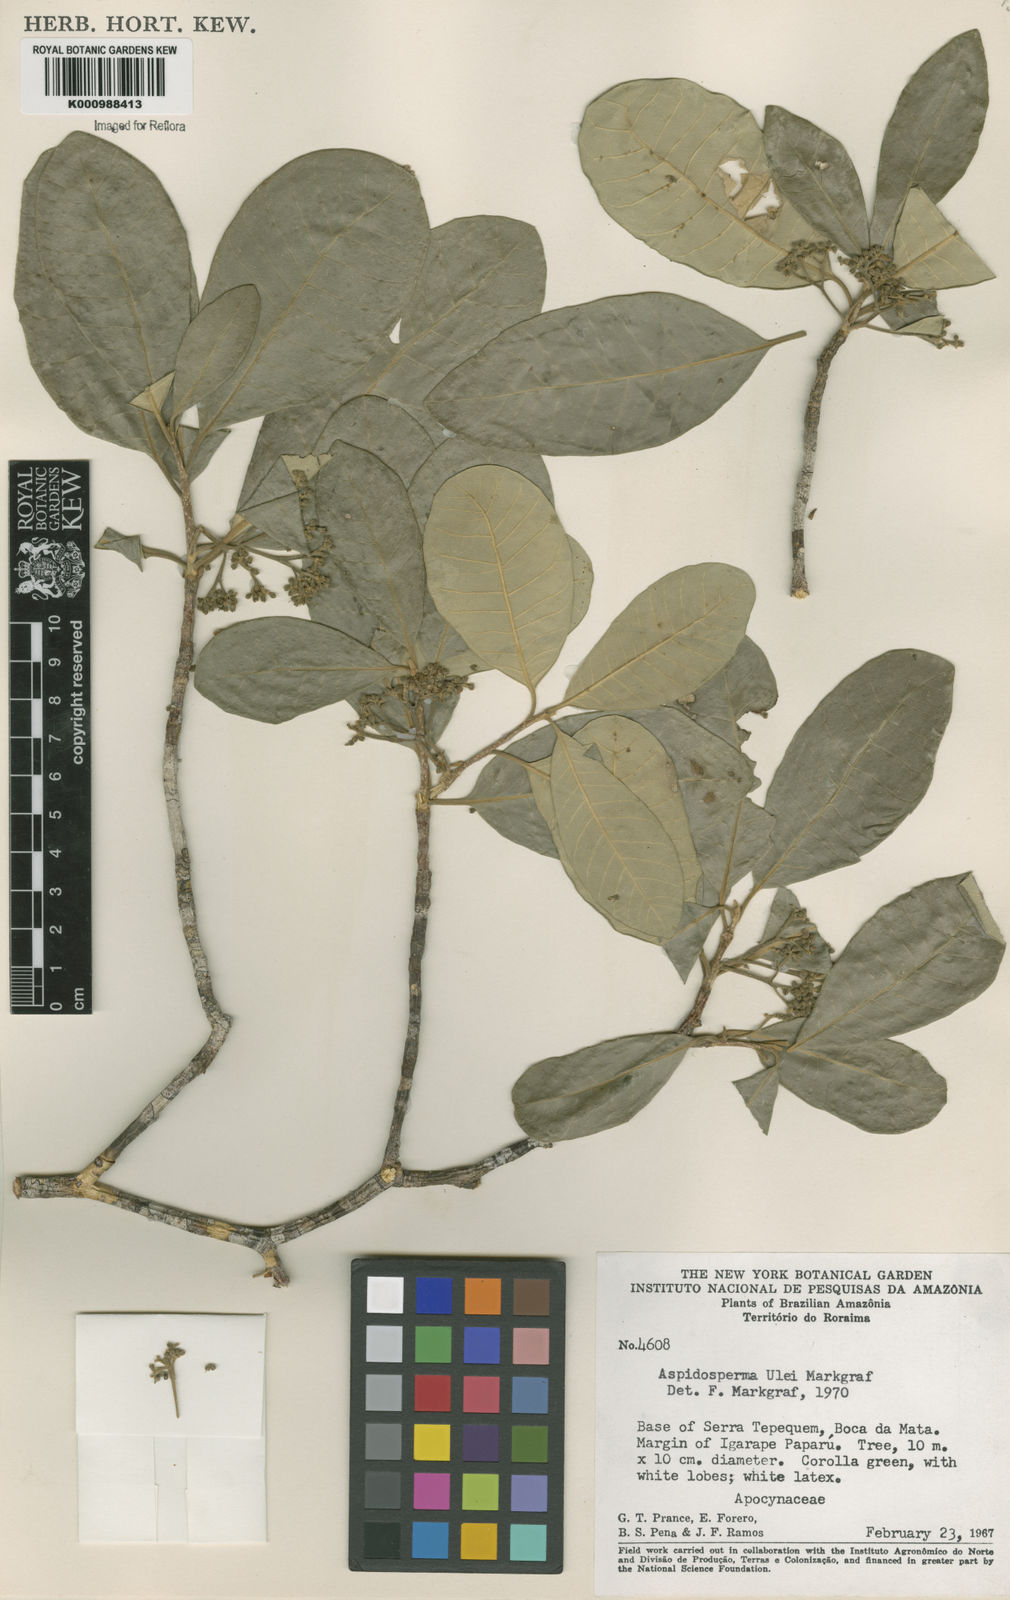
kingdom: Plantae
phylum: Tracheophyta
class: Magnoliopsida
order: Gentianales
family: Apocynaceae
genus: Aspidosperma
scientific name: Aspidosperma ulei
